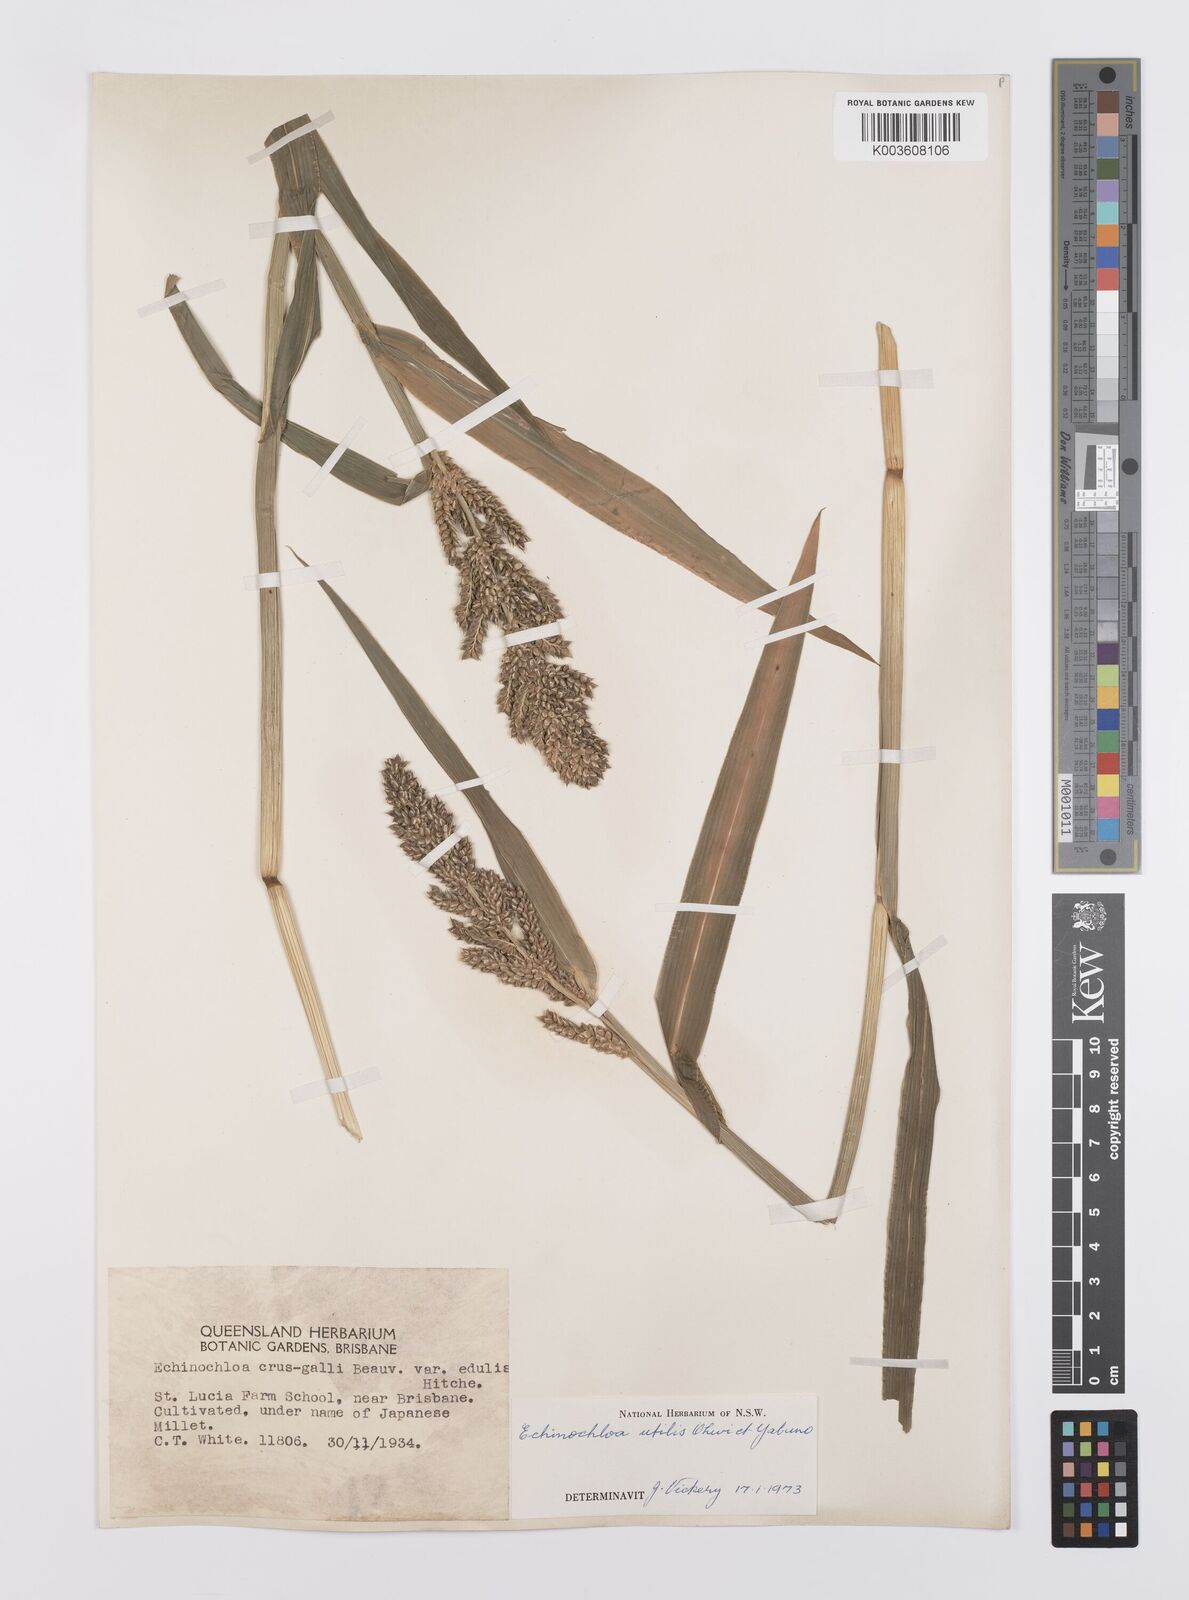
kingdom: Plantae
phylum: Tracheophyta
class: Liliopsida
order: Poales
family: Poaceae
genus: Echinochloa
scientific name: Echinochloa crus-galli
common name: Cockspur
